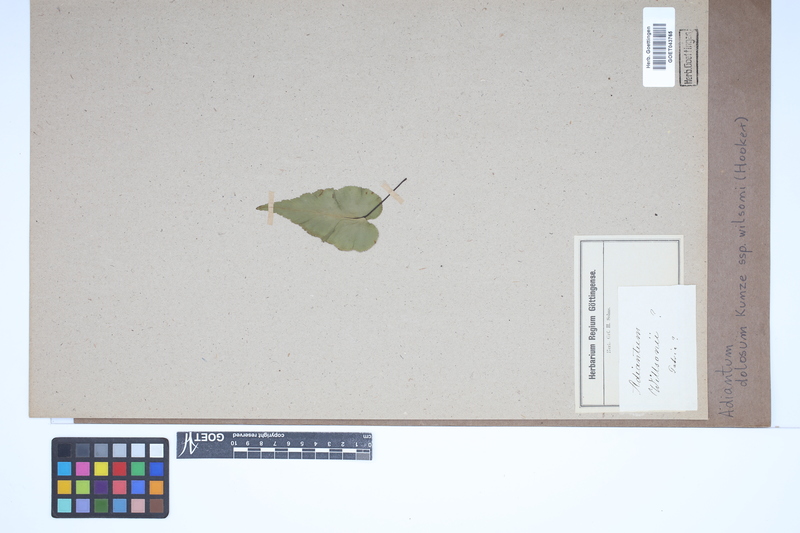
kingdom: Plantae
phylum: Tracheophyta
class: Polypodiopsida
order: Polypodiales
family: Pteridaceae
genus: Adiantum
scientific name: Adiantum dolosum
